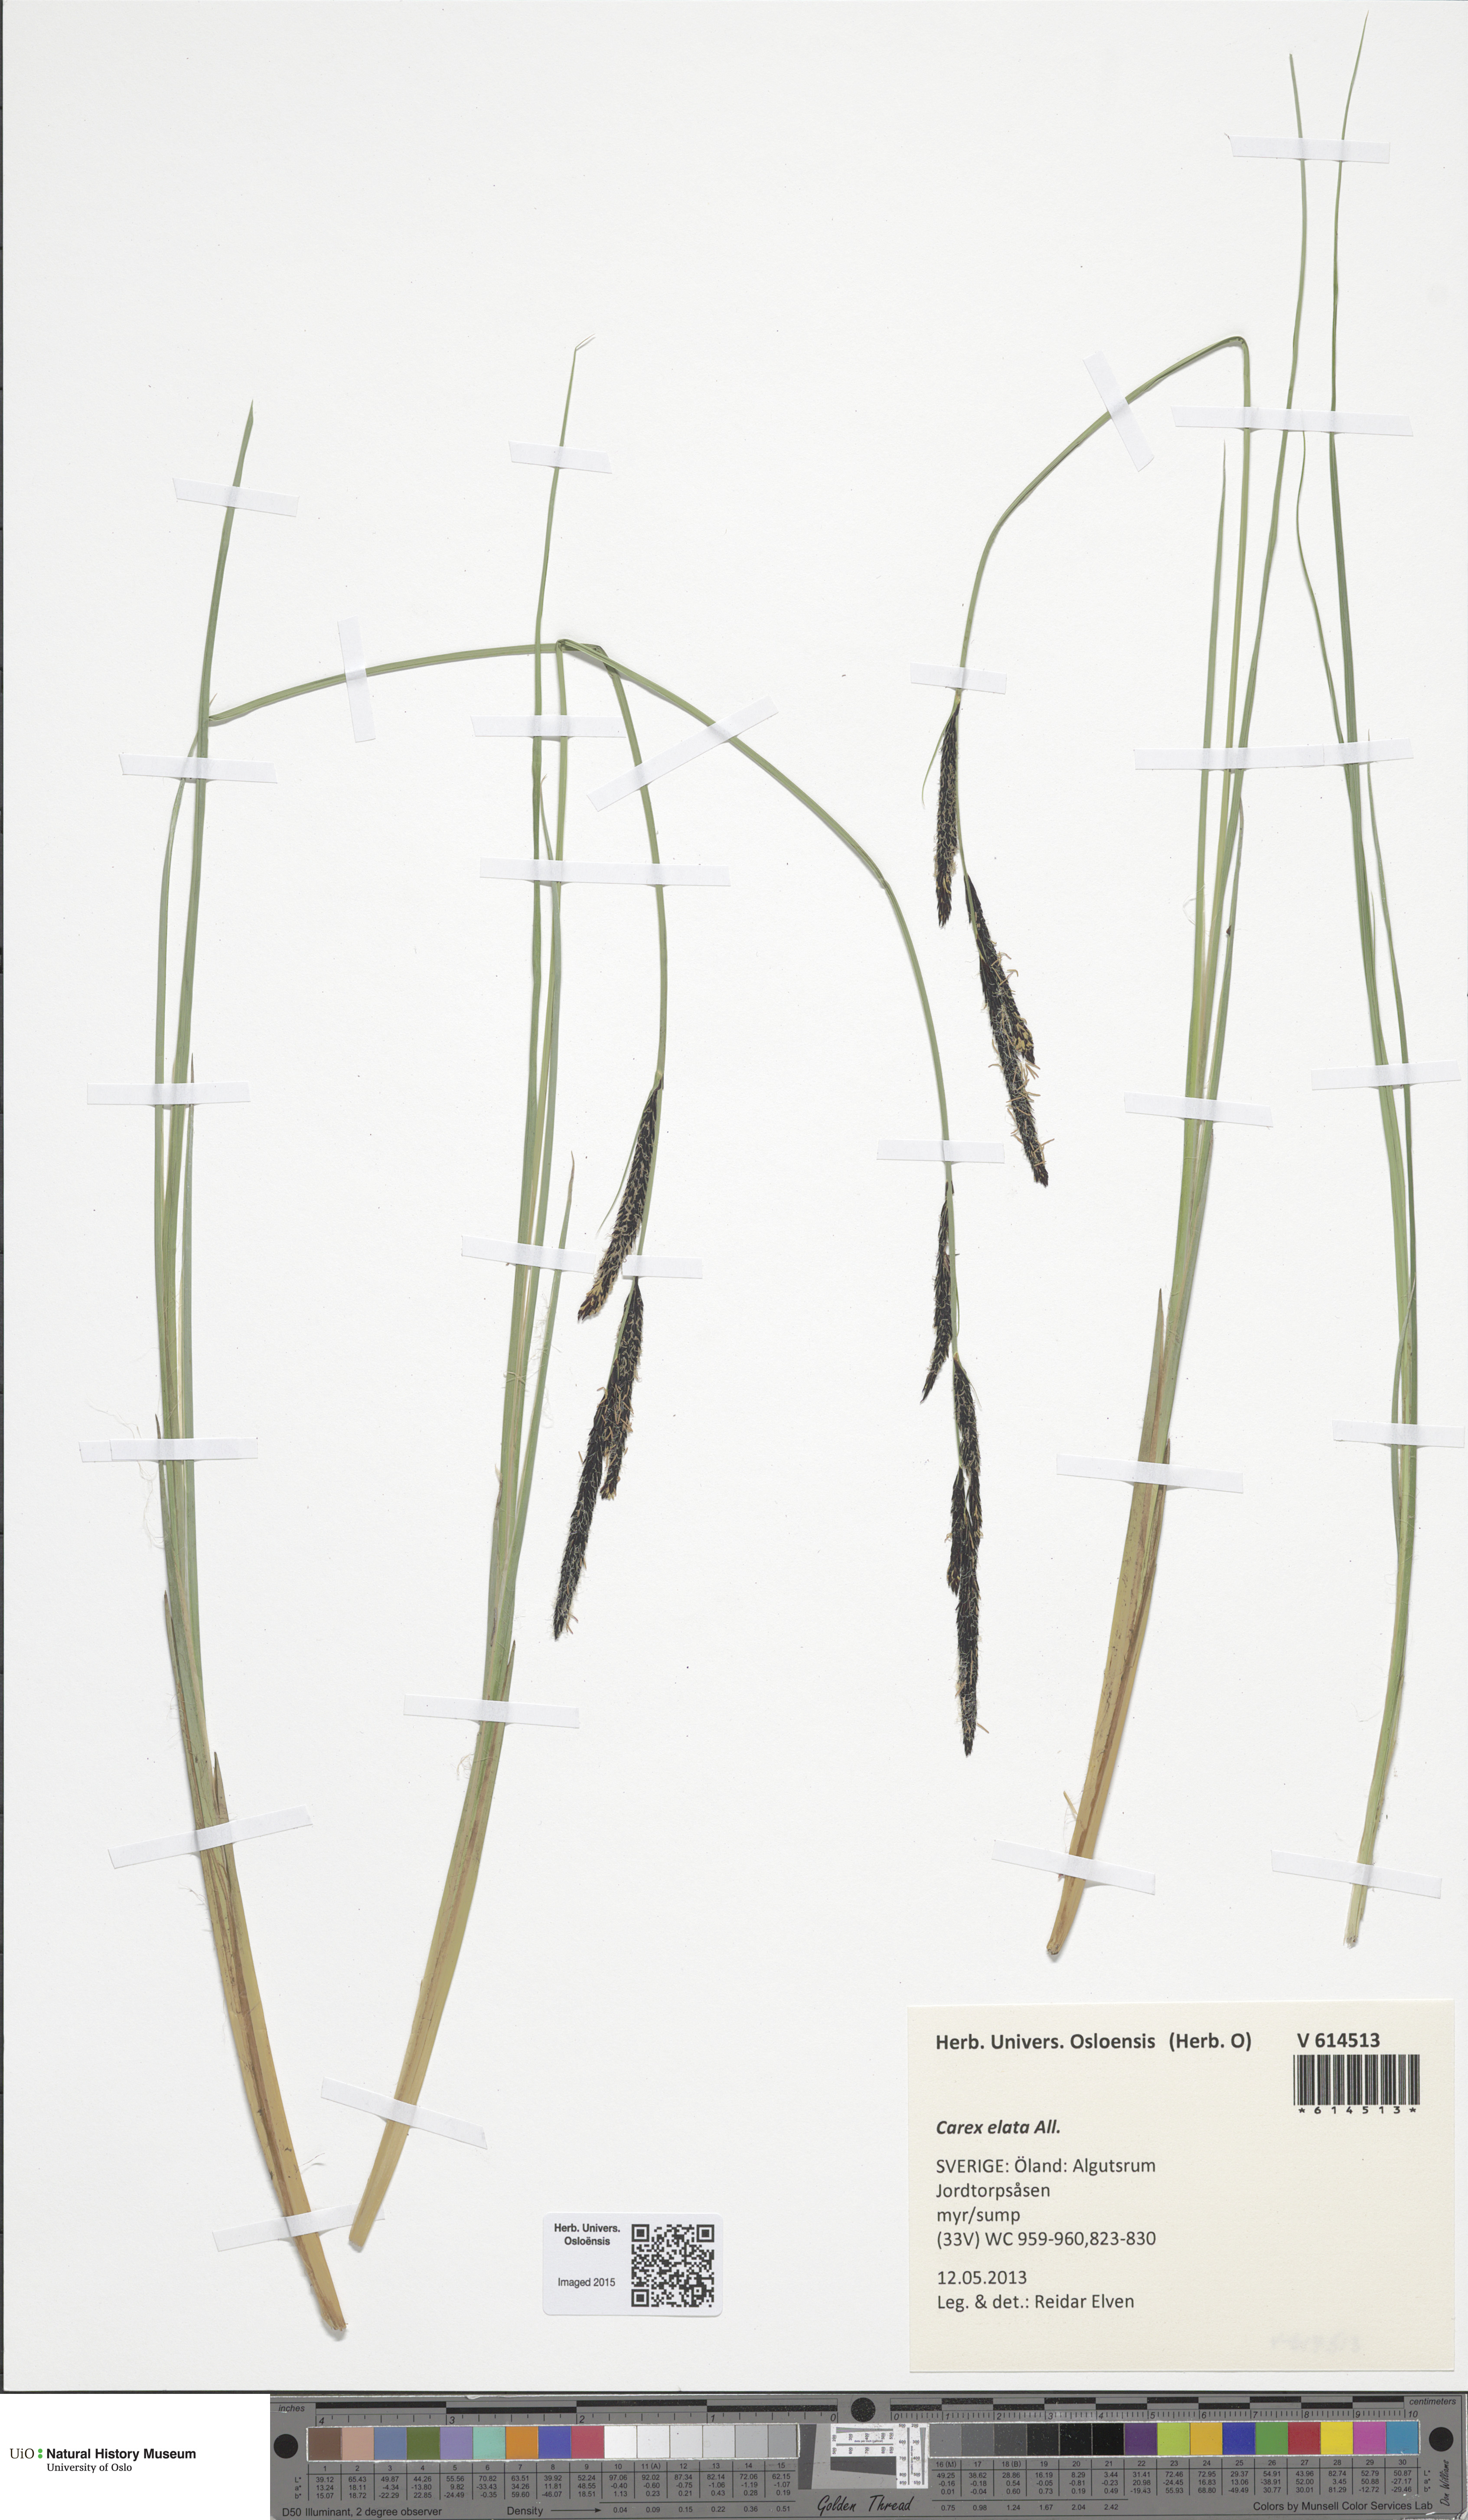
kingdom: Plantae
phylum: Tracheophyta
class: Liliopsida
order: Poales
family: Cyperaceae
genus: Carex
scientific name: Carex elata
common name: Tufted sedge
